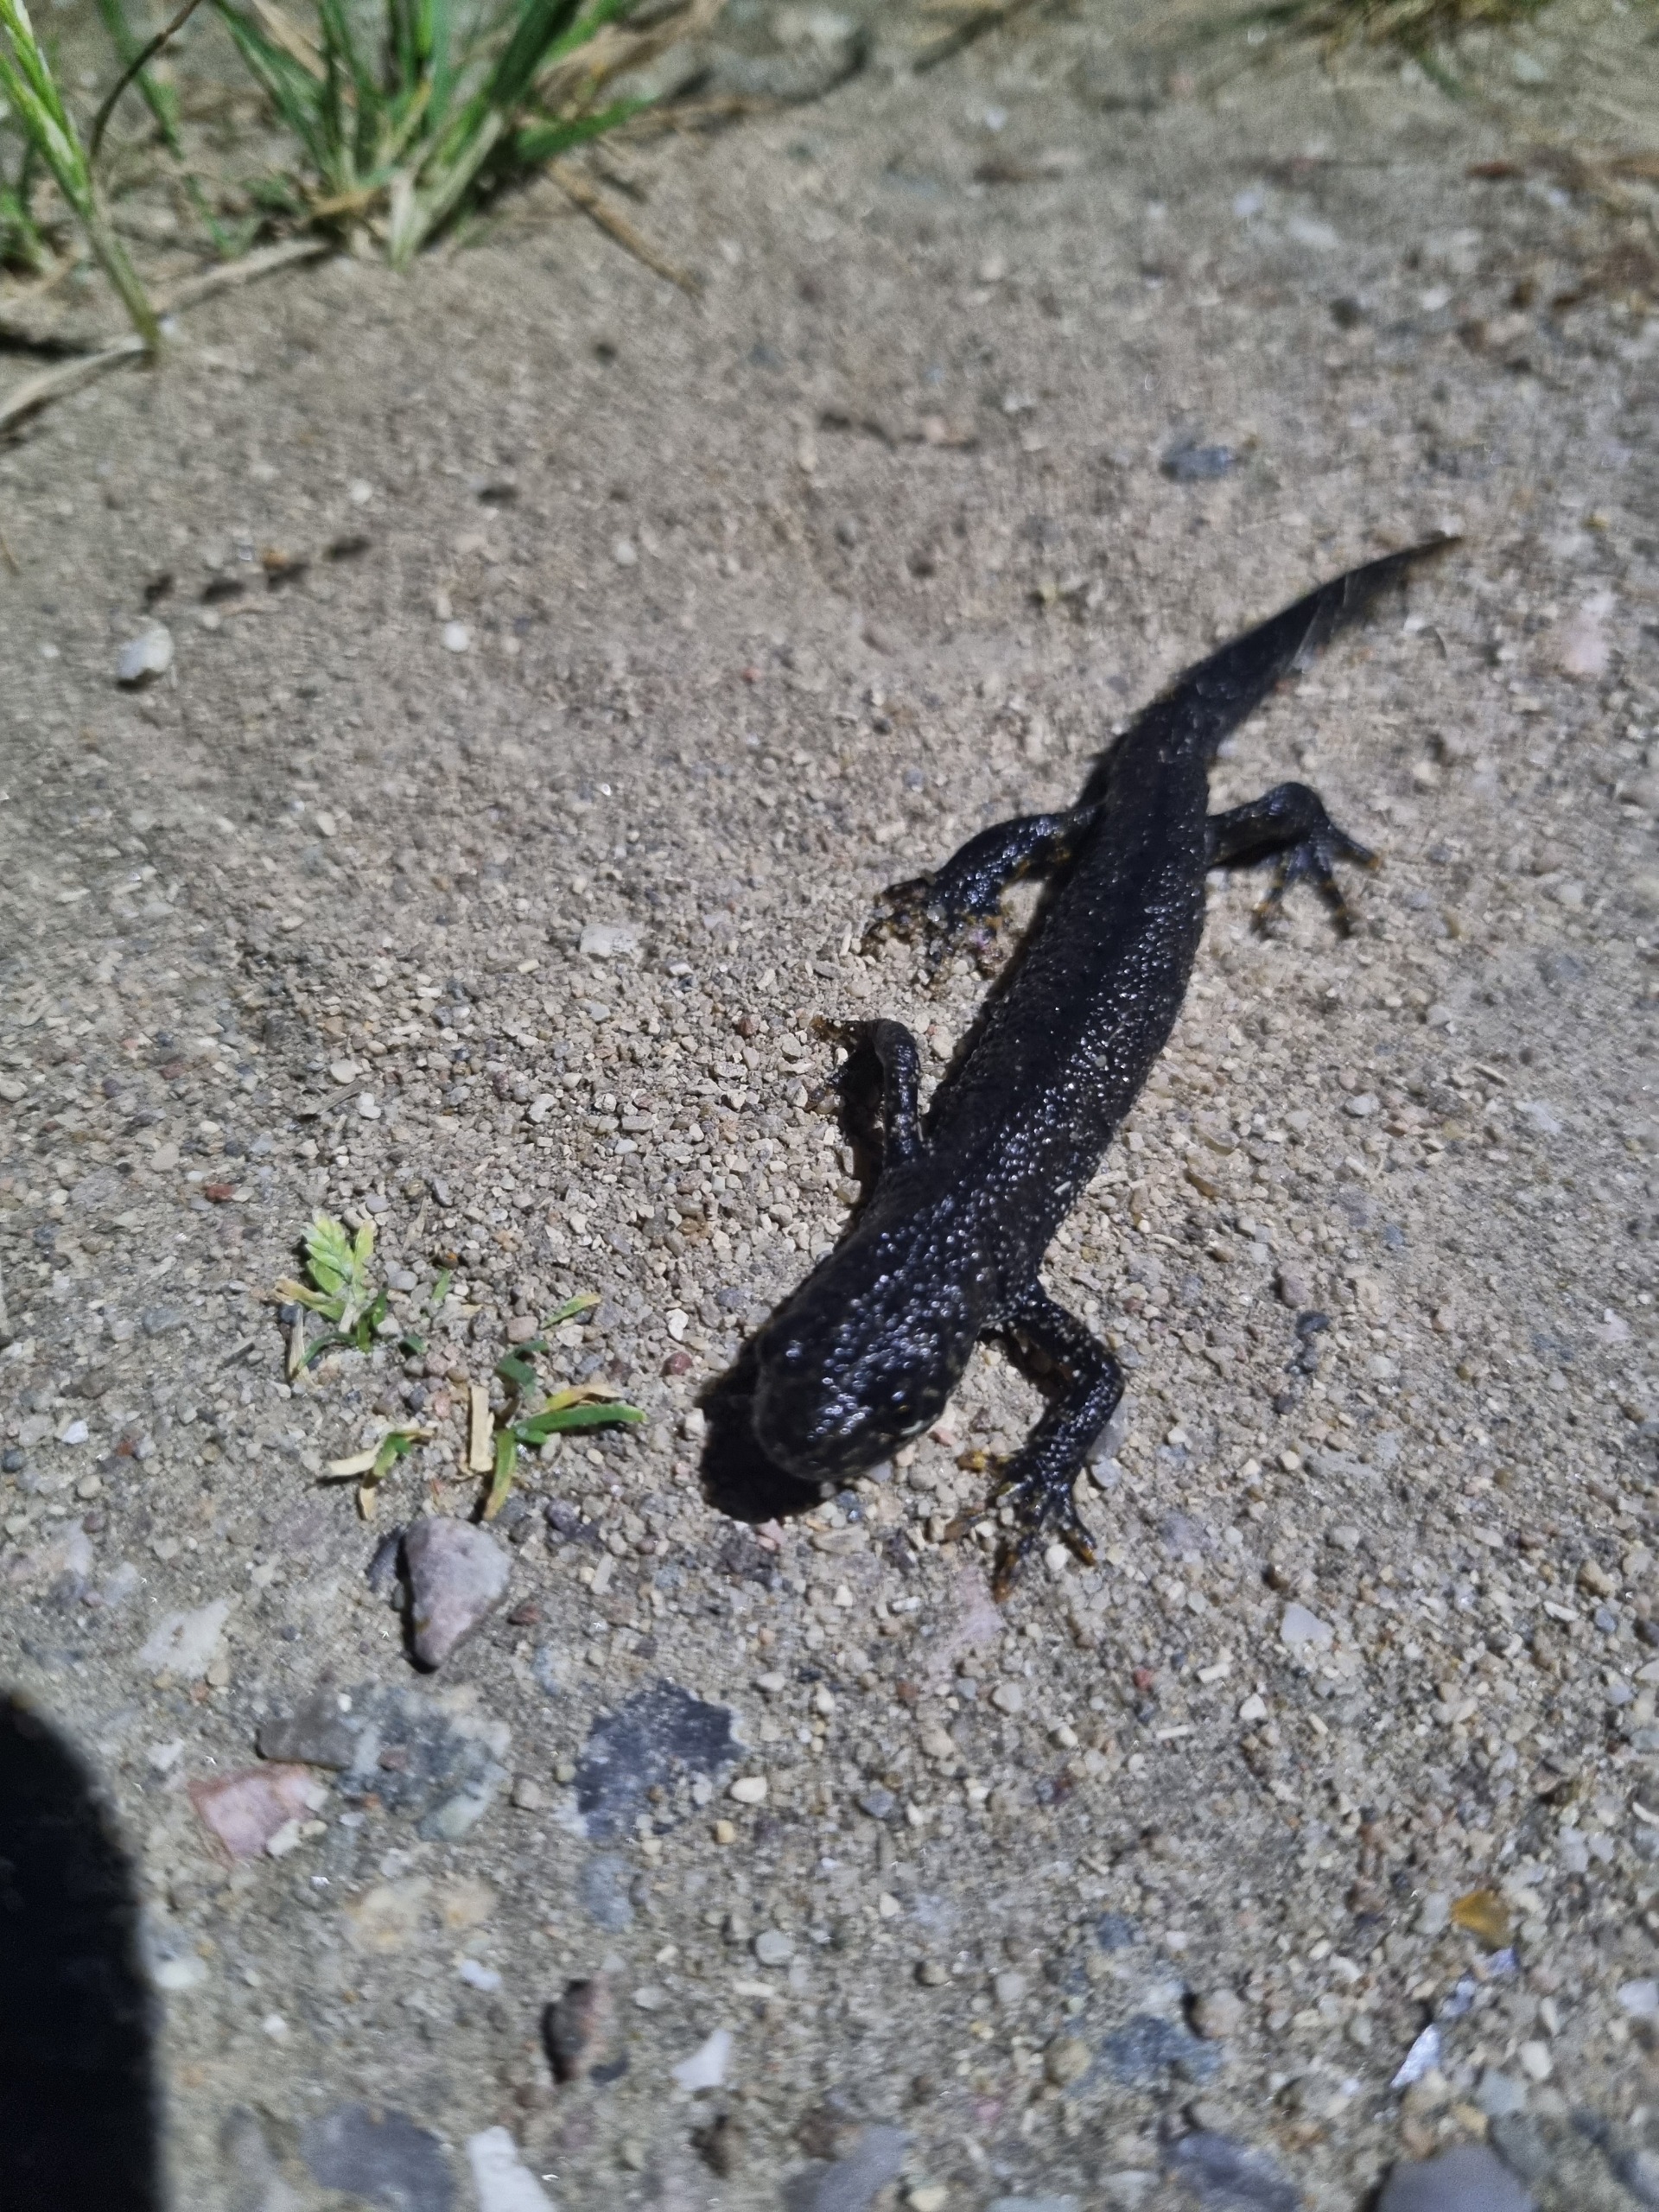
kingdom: Animalia
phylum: Chordata
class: Amphibia
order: Caudata
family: Salamandridae
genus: Triturus
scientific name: Triturus cristatus
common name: Stor vandsalamander
